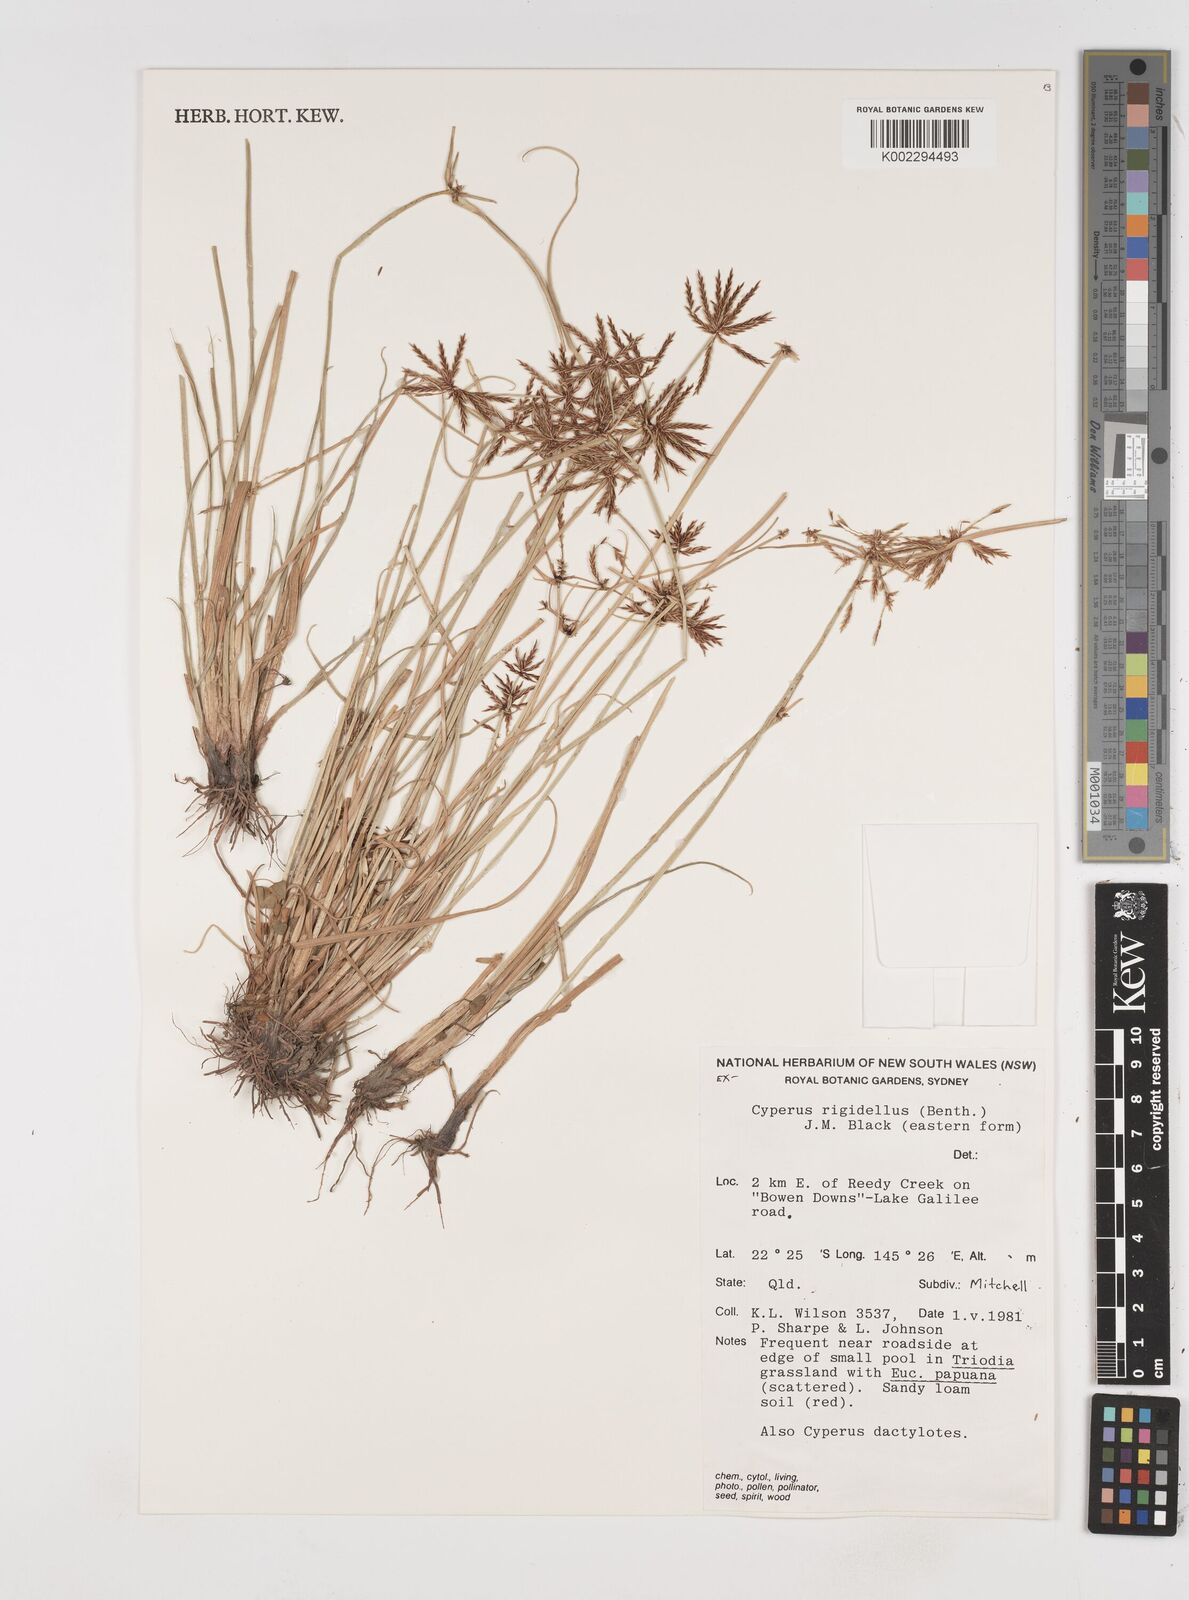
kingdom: Plantae
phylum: Tracheophyta
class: Liliopsida
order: Poales
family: Cyperaceae
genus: Cyperus
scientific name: Cyperus rigidellus
